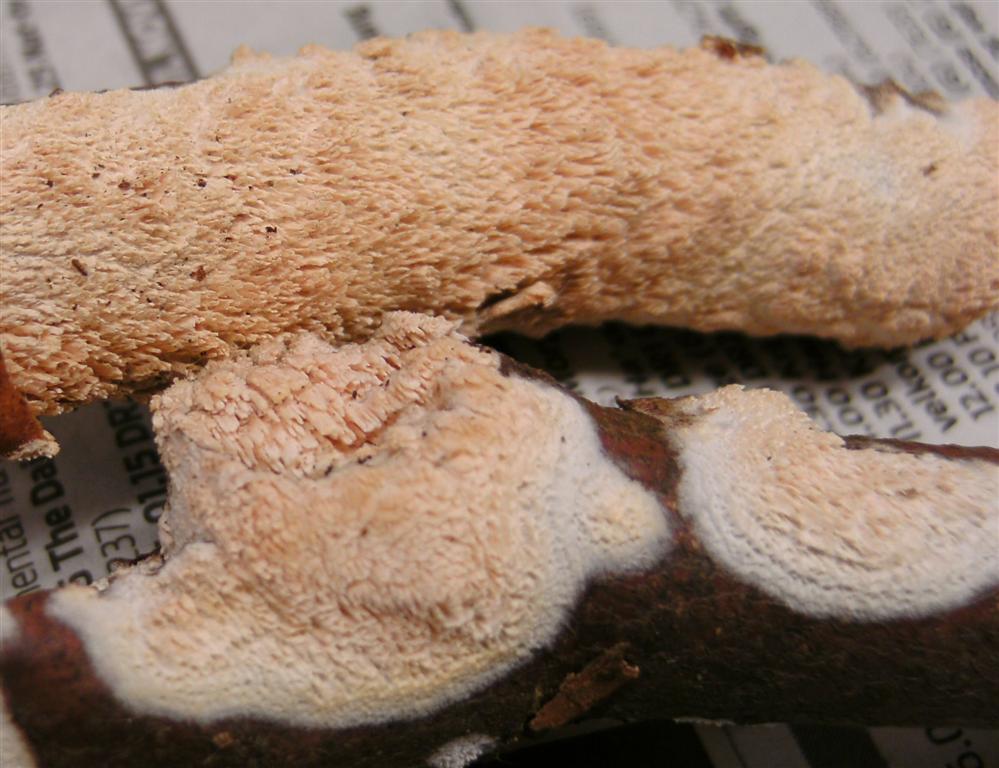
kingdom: Fungi
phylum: Basidiomycota
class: Agaricomycetes
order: Hymenochaetales
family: Schizoporaceae
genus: Schizopora
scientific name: Schizopora paradoxa
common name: hvid tandsvamp
